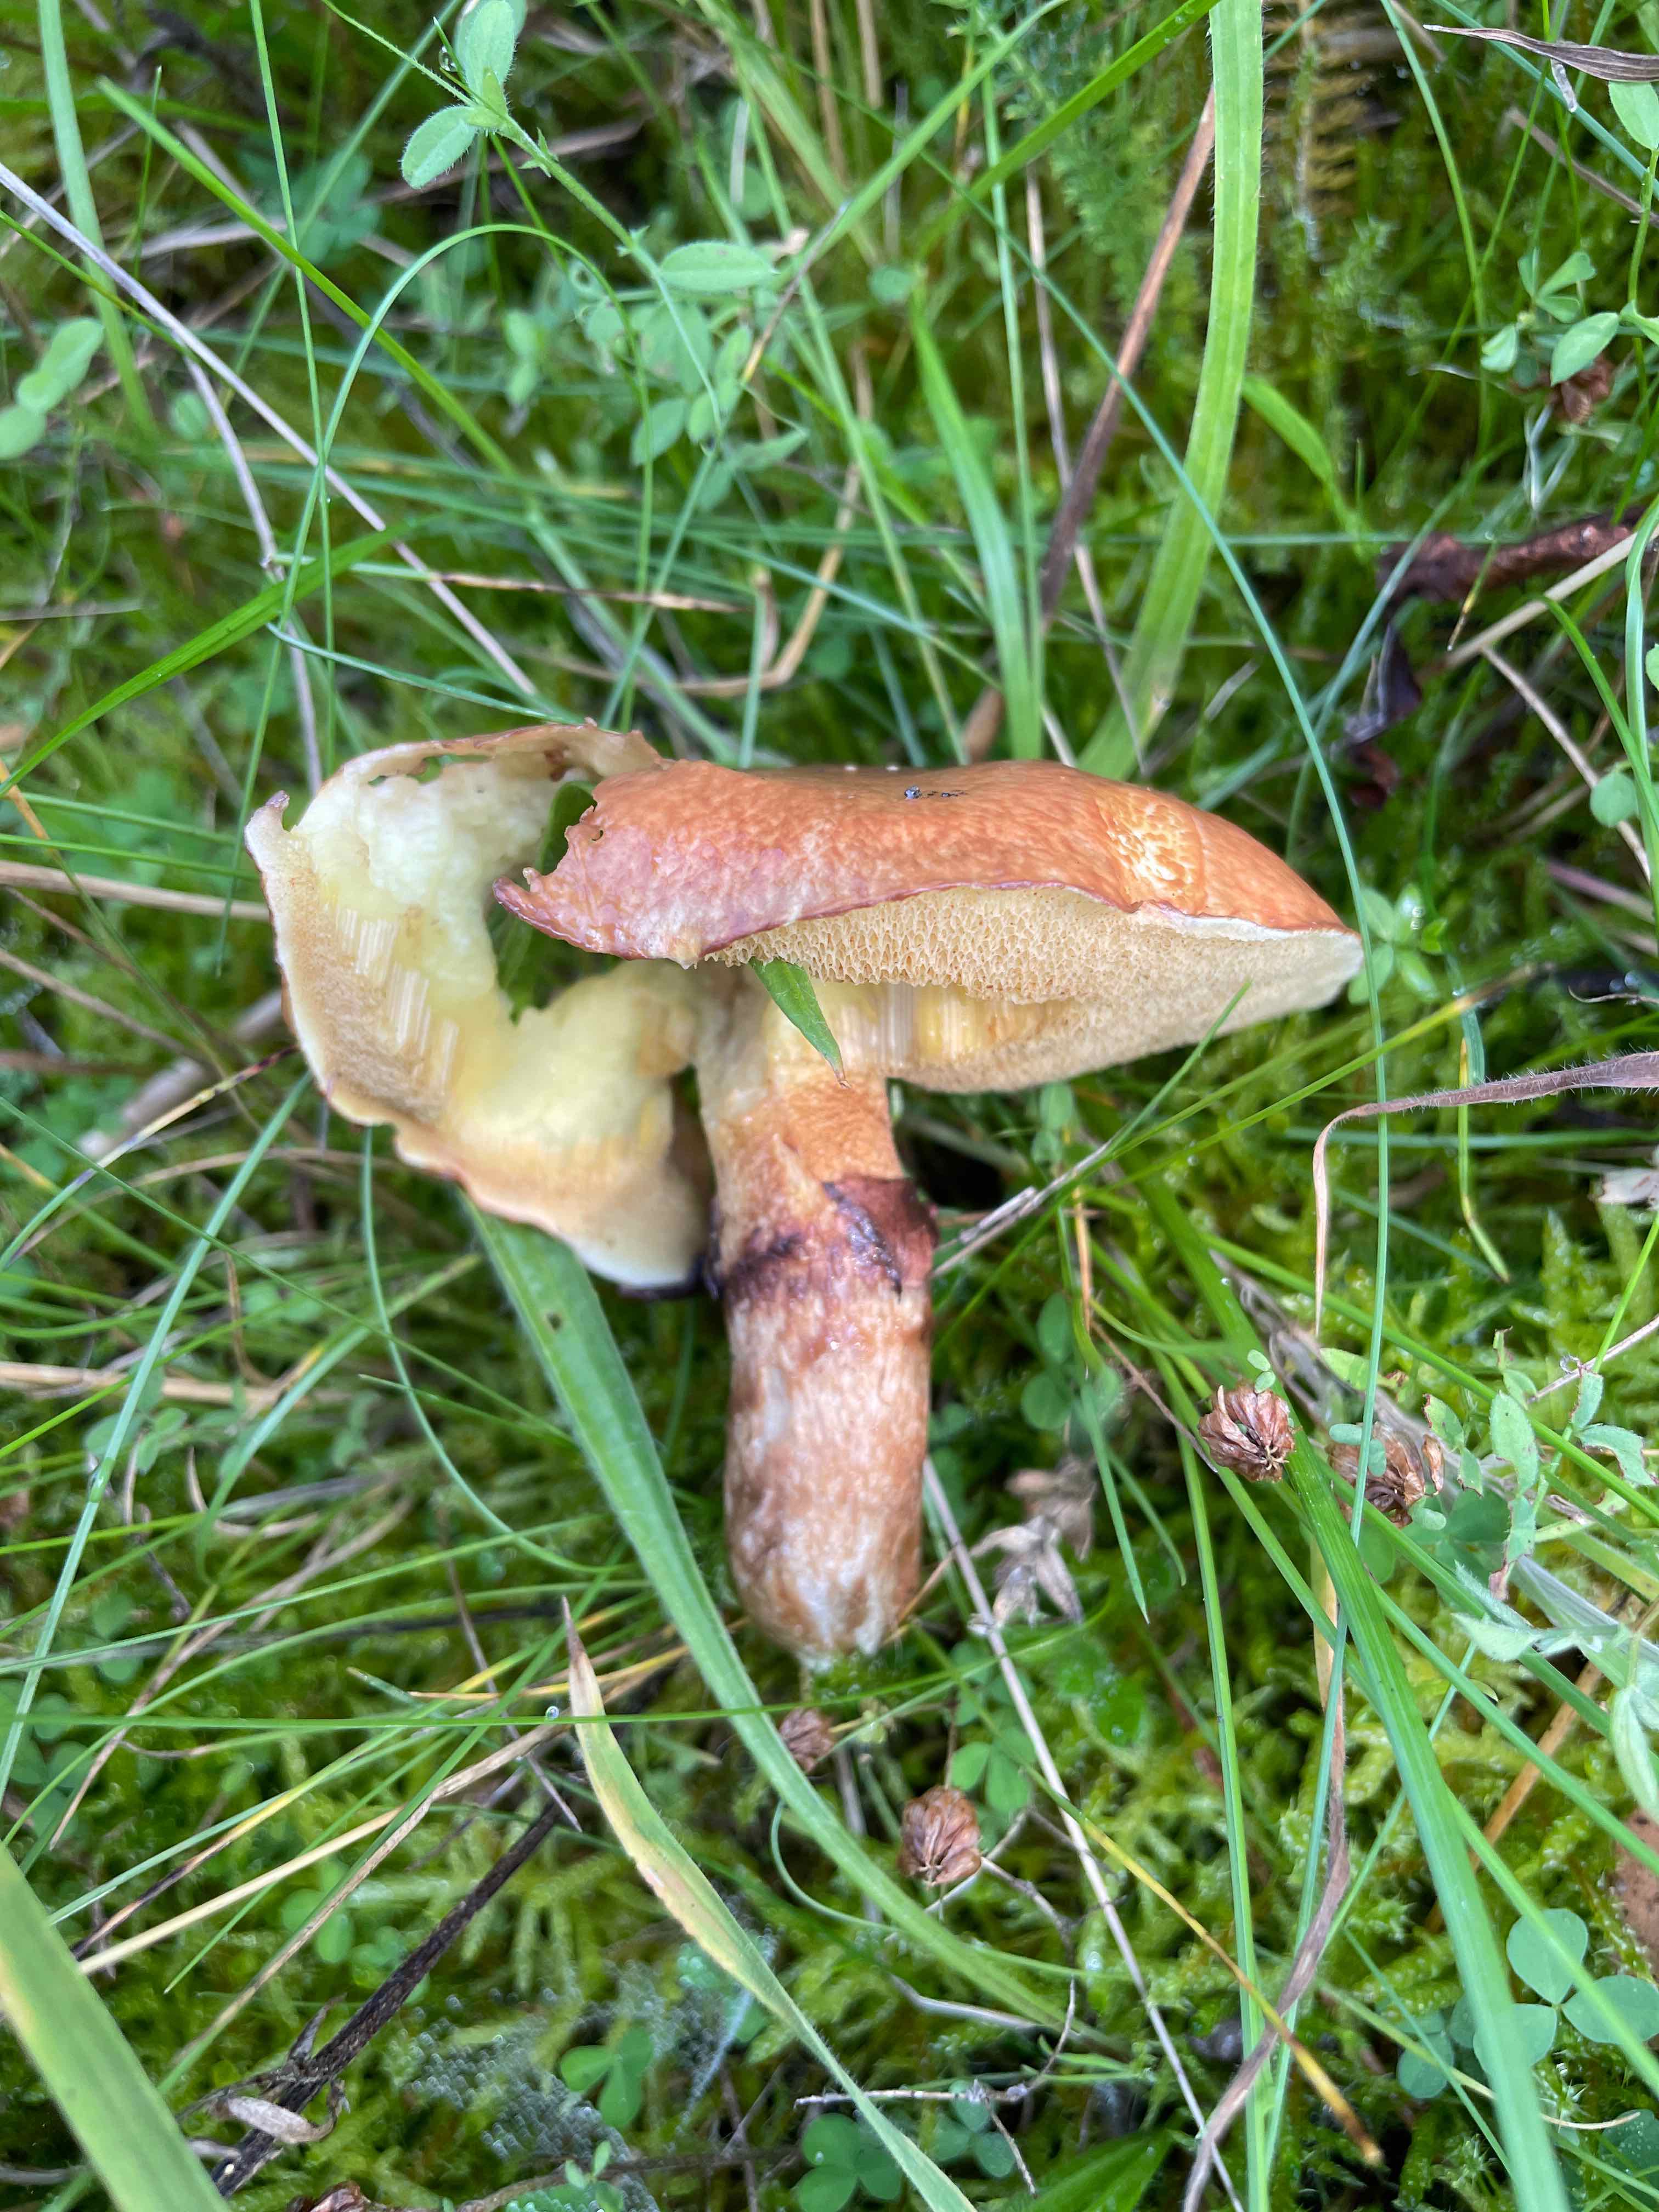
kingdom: Fungi
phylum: Basidiomycota
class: Agaricomycetes
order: Boletales
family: Suillaceae
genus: Suillus
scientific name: Suillus luteus
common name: brungul slimrørhat
